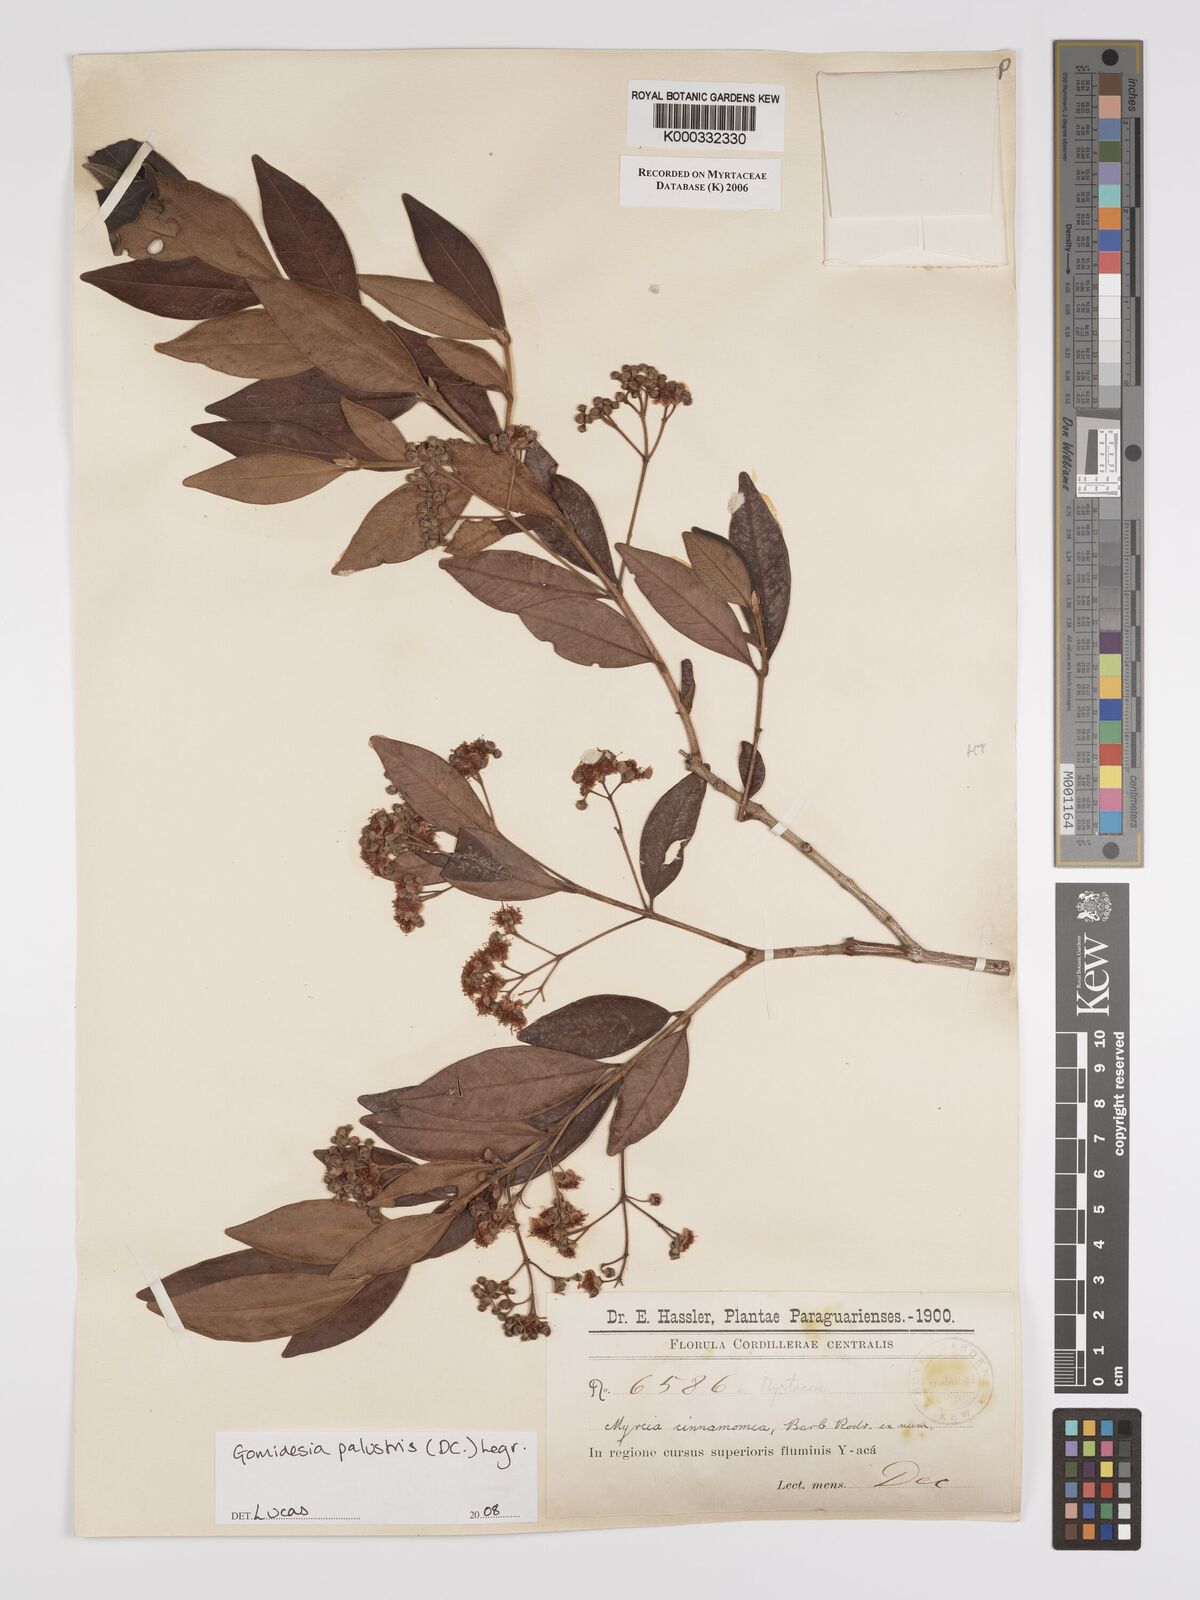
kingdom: Plantae
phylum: Tracheophyta
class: Magnoliopsida
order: Myrtales
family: Myrtaceae
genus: Myrcia
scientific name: Myrcia
